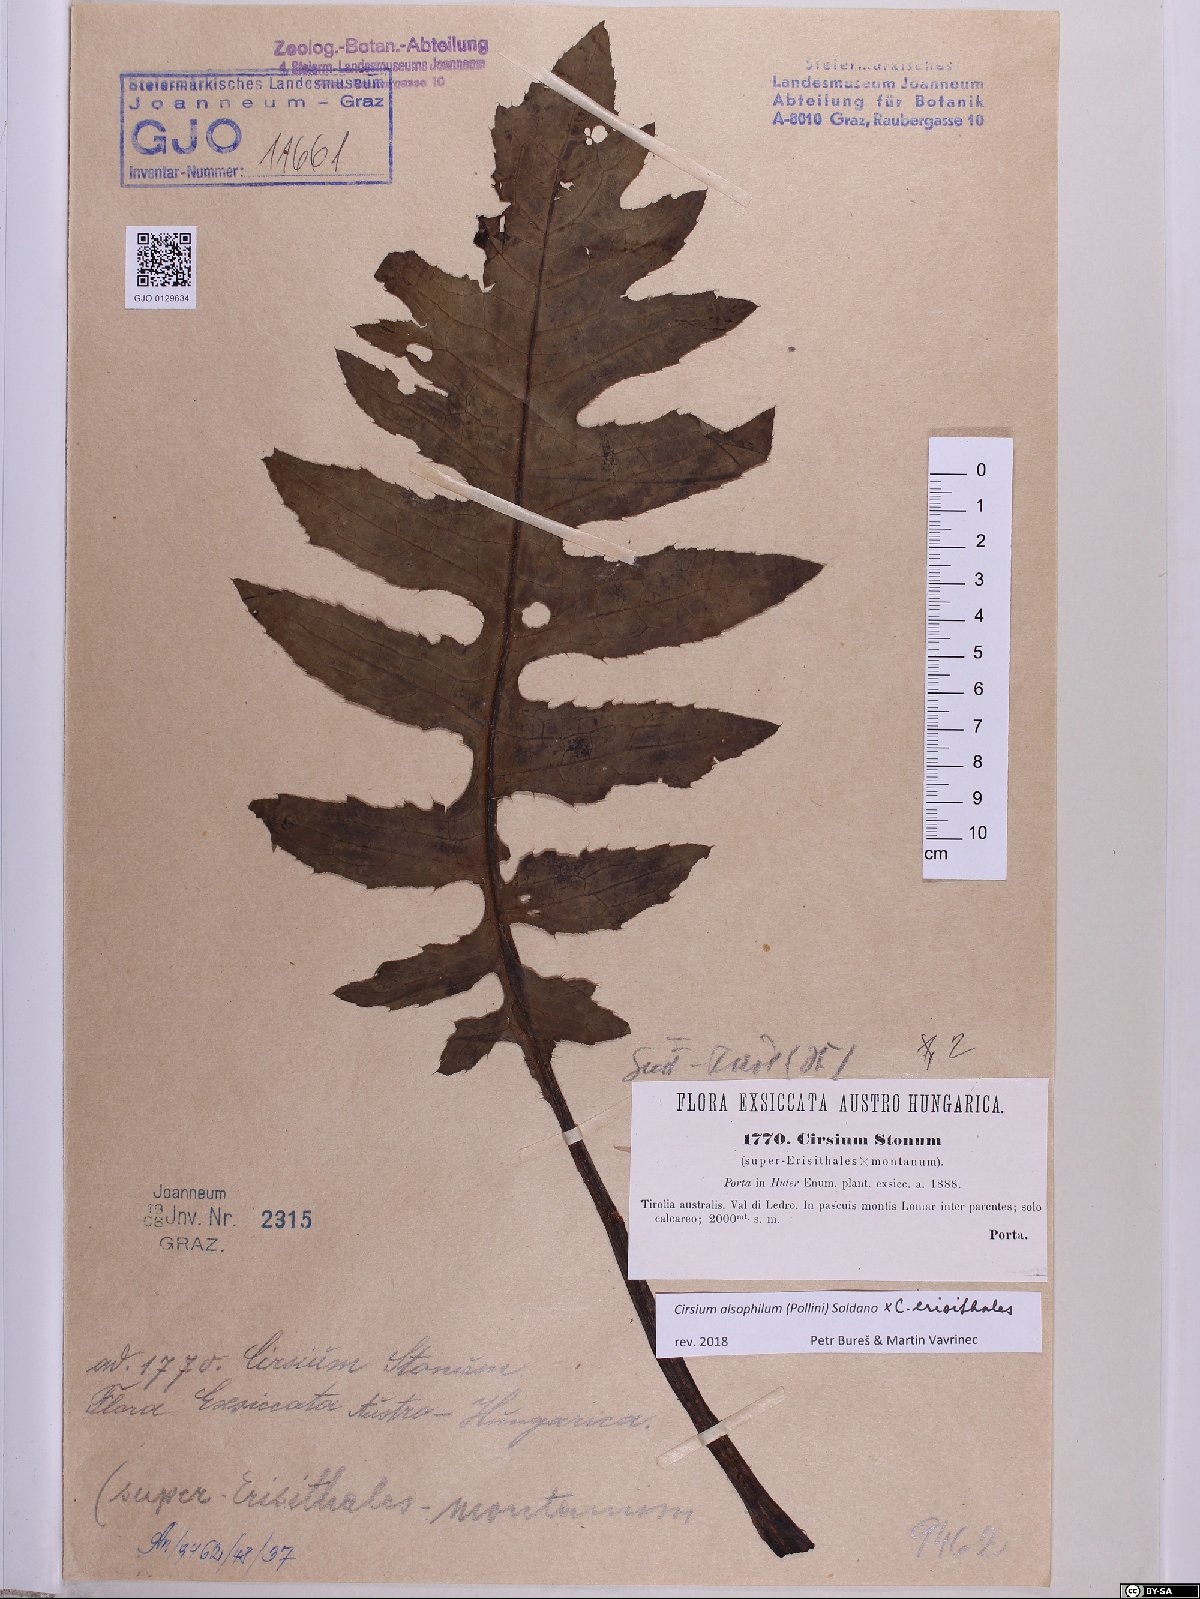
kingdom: Plantae
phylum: Tracheophyta
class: Magnoliopsida
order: Asterales
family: Asteraceae
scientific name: Asteraceae
